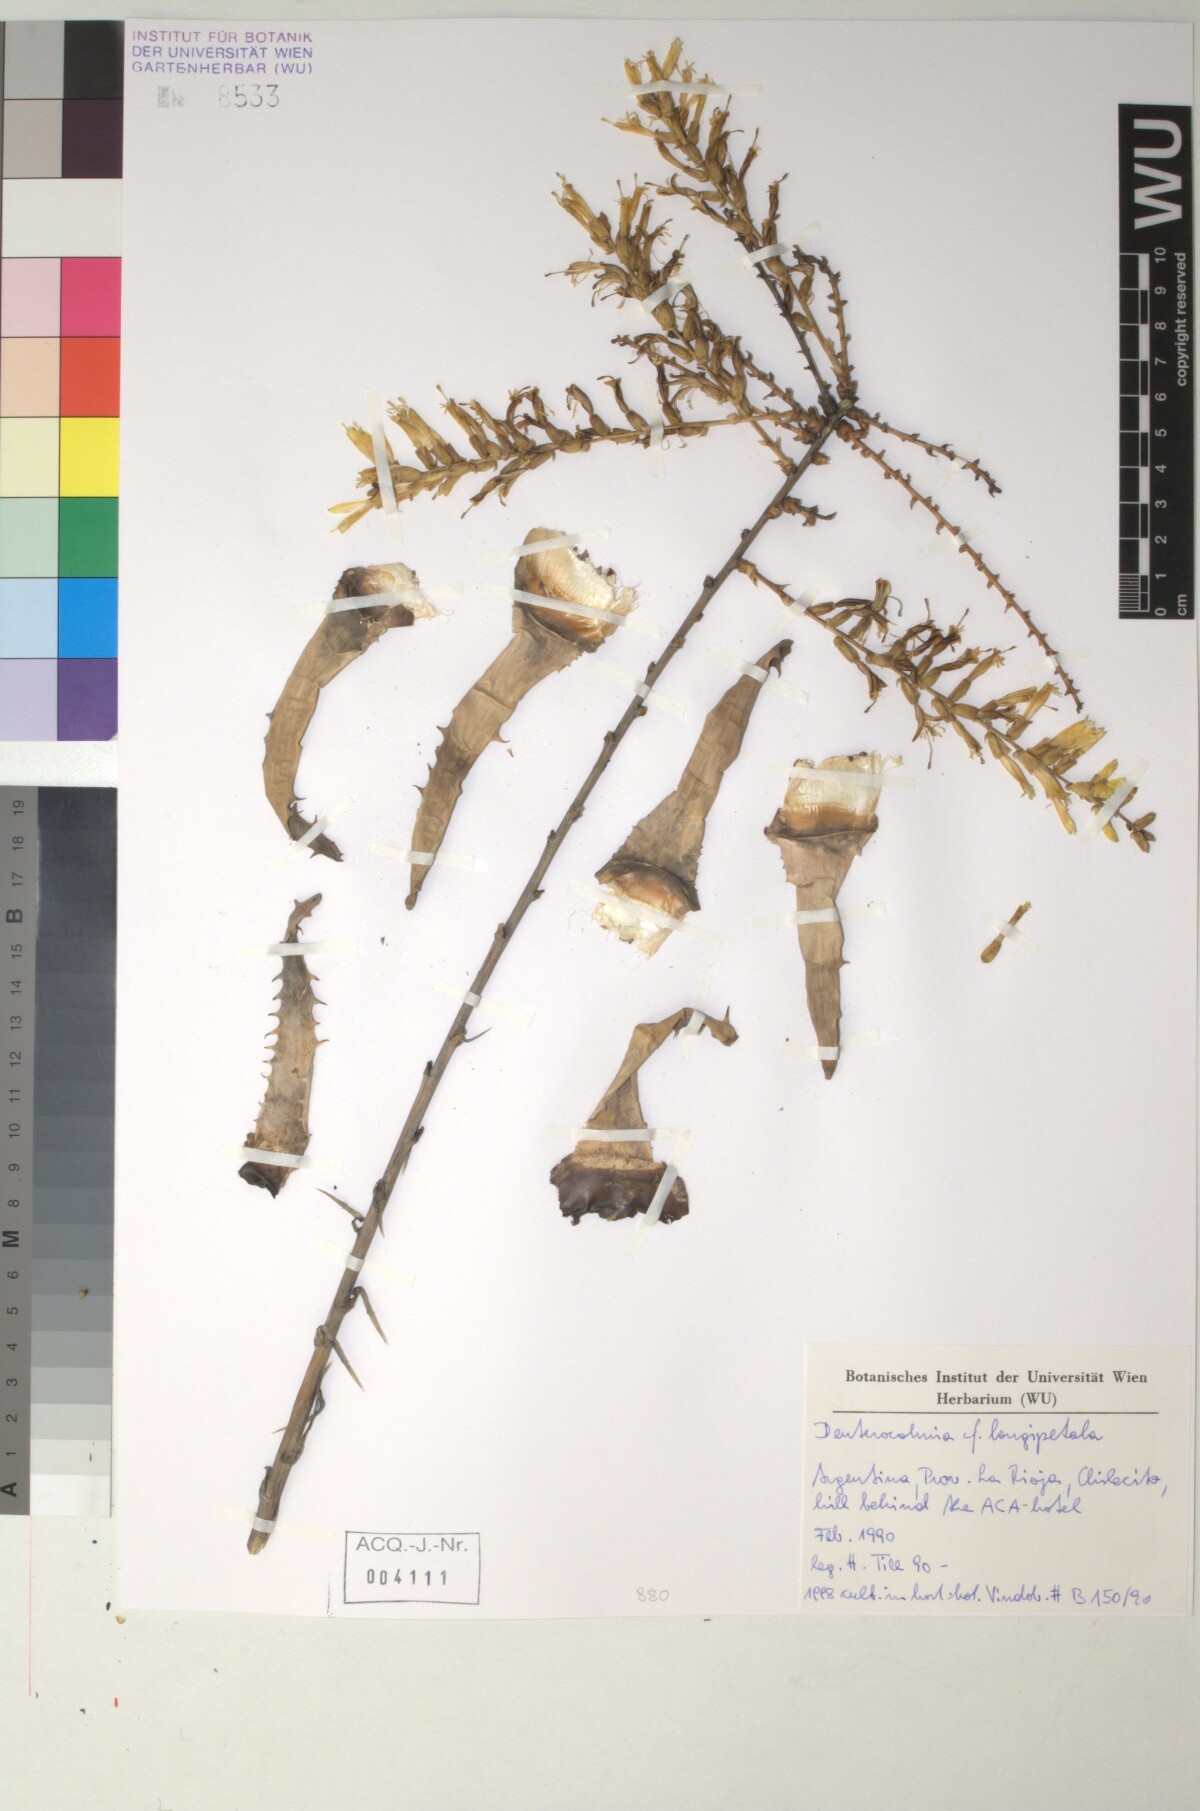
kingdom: Plantae
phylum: Tracheophyta
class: Liliopsida
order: Poales
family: Bromeliaceae
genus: Deuterocohnia
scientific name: Deuterocohnia longipetala
